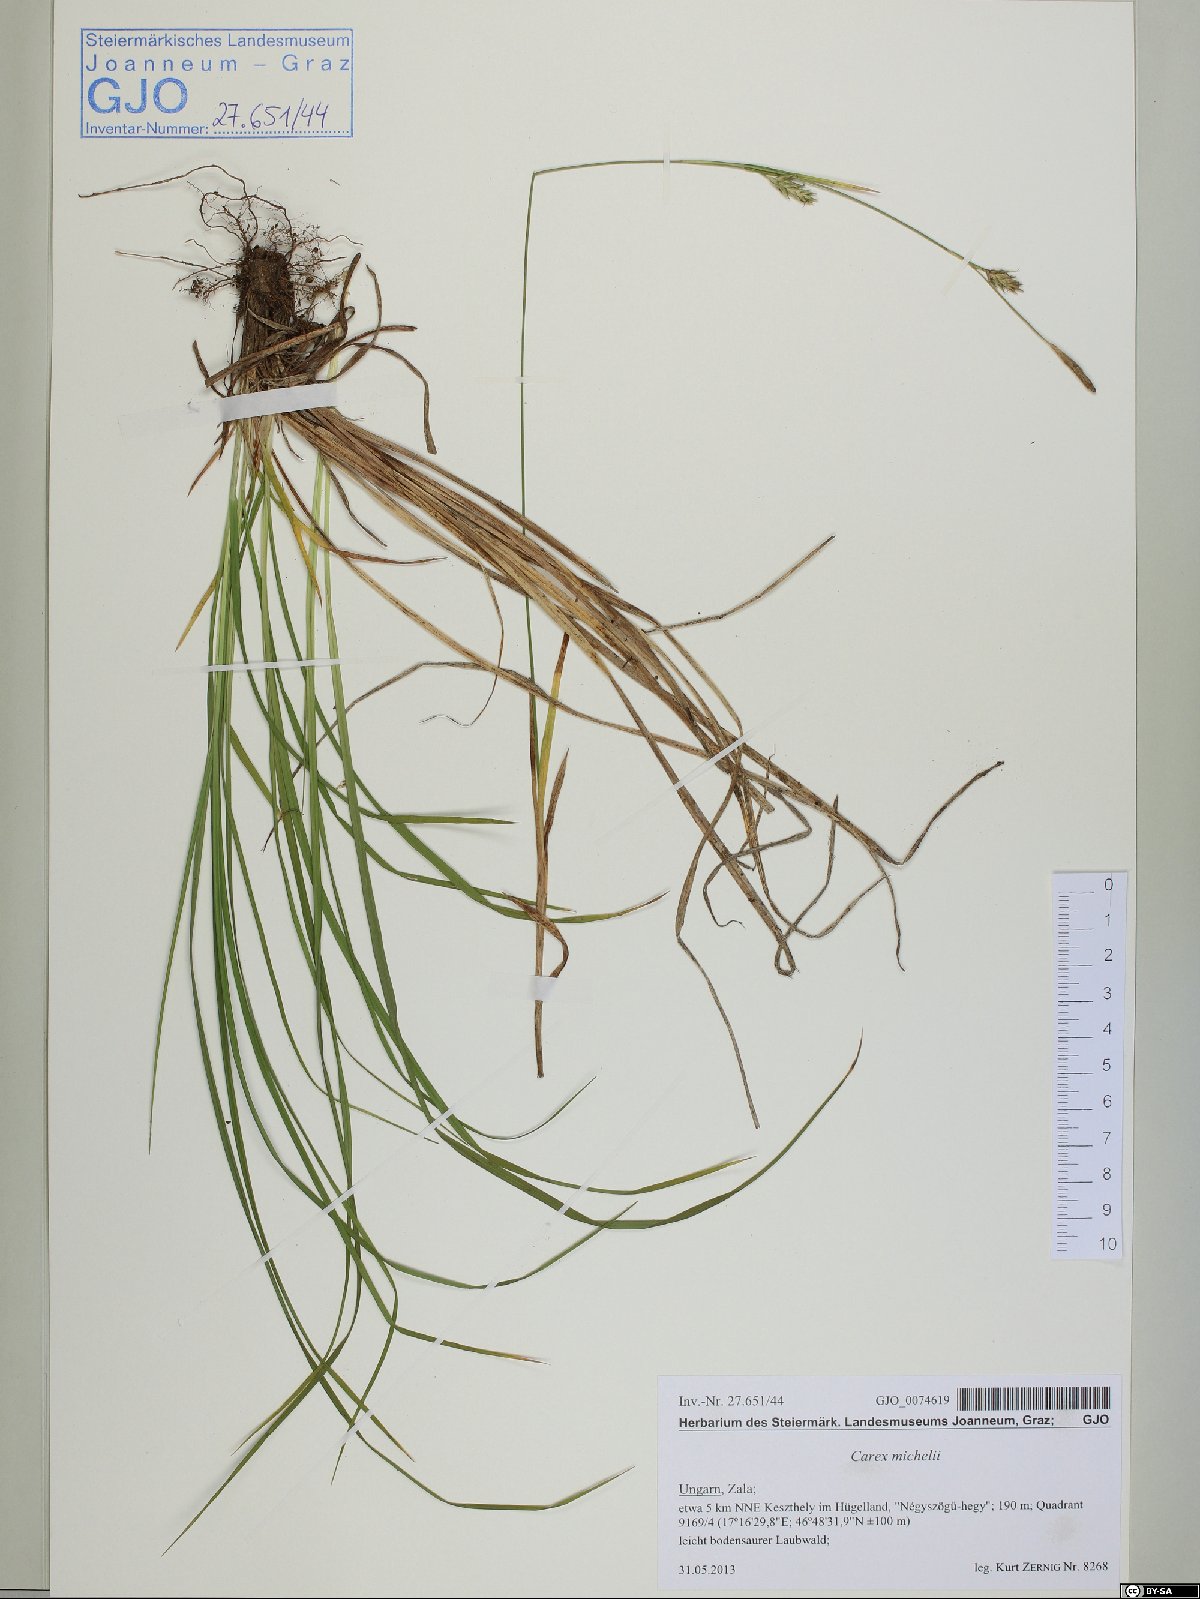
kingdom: Plantae
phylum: Tracheophyta
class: Liliopsida
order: Poales
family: Cyperaceae
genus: Carex
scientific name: Carex michelii
